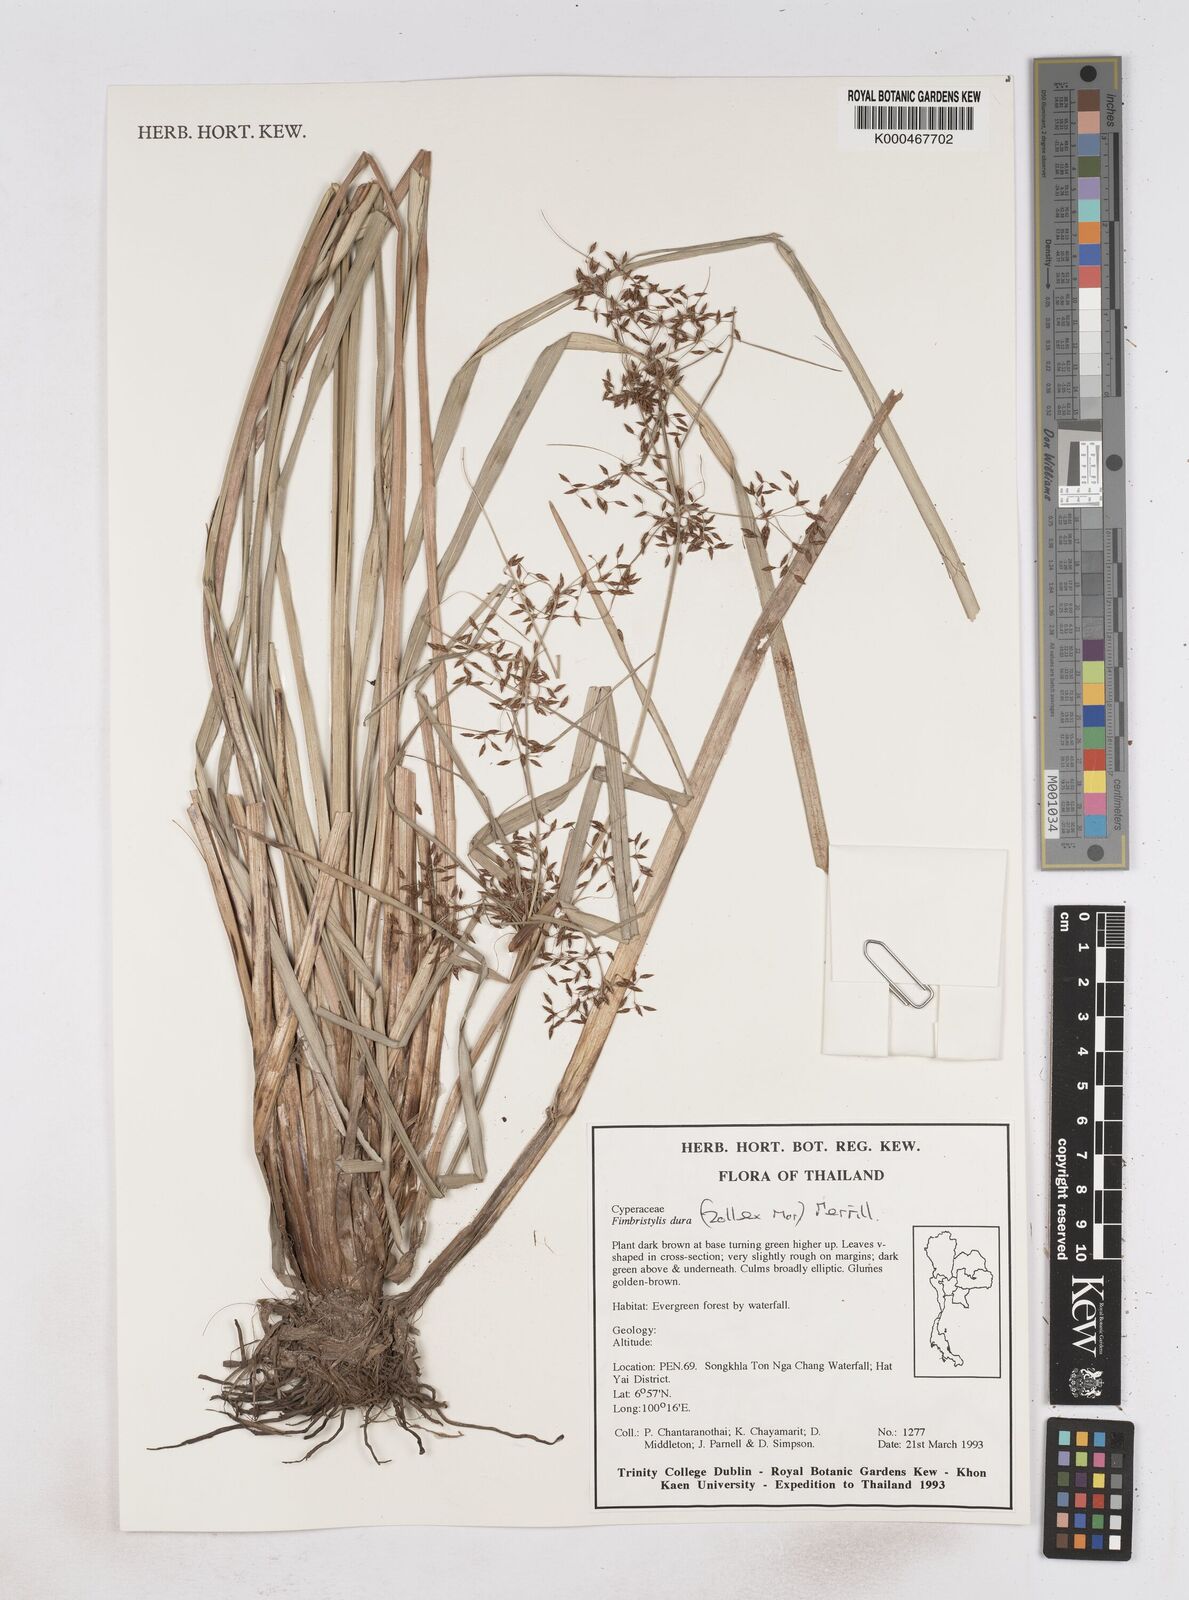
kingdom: Plantae
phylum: Tracheophyta
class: Liliopsida
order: Poales
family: Cyperaceae
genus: Fimbristylis
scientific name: Fimbristylis dura
